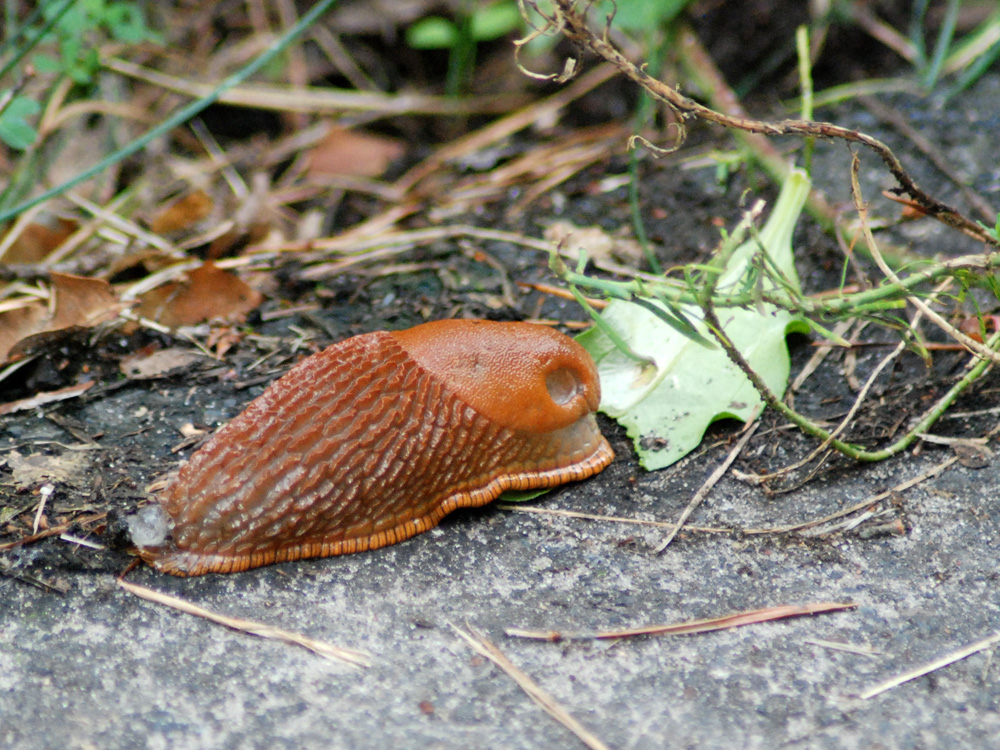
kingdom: Plantae
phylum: Tracheophyta
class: Magnoliopsida
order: Lamiales
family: Plantaginaceae
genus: Plantago
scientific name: Plantago uliginosa
